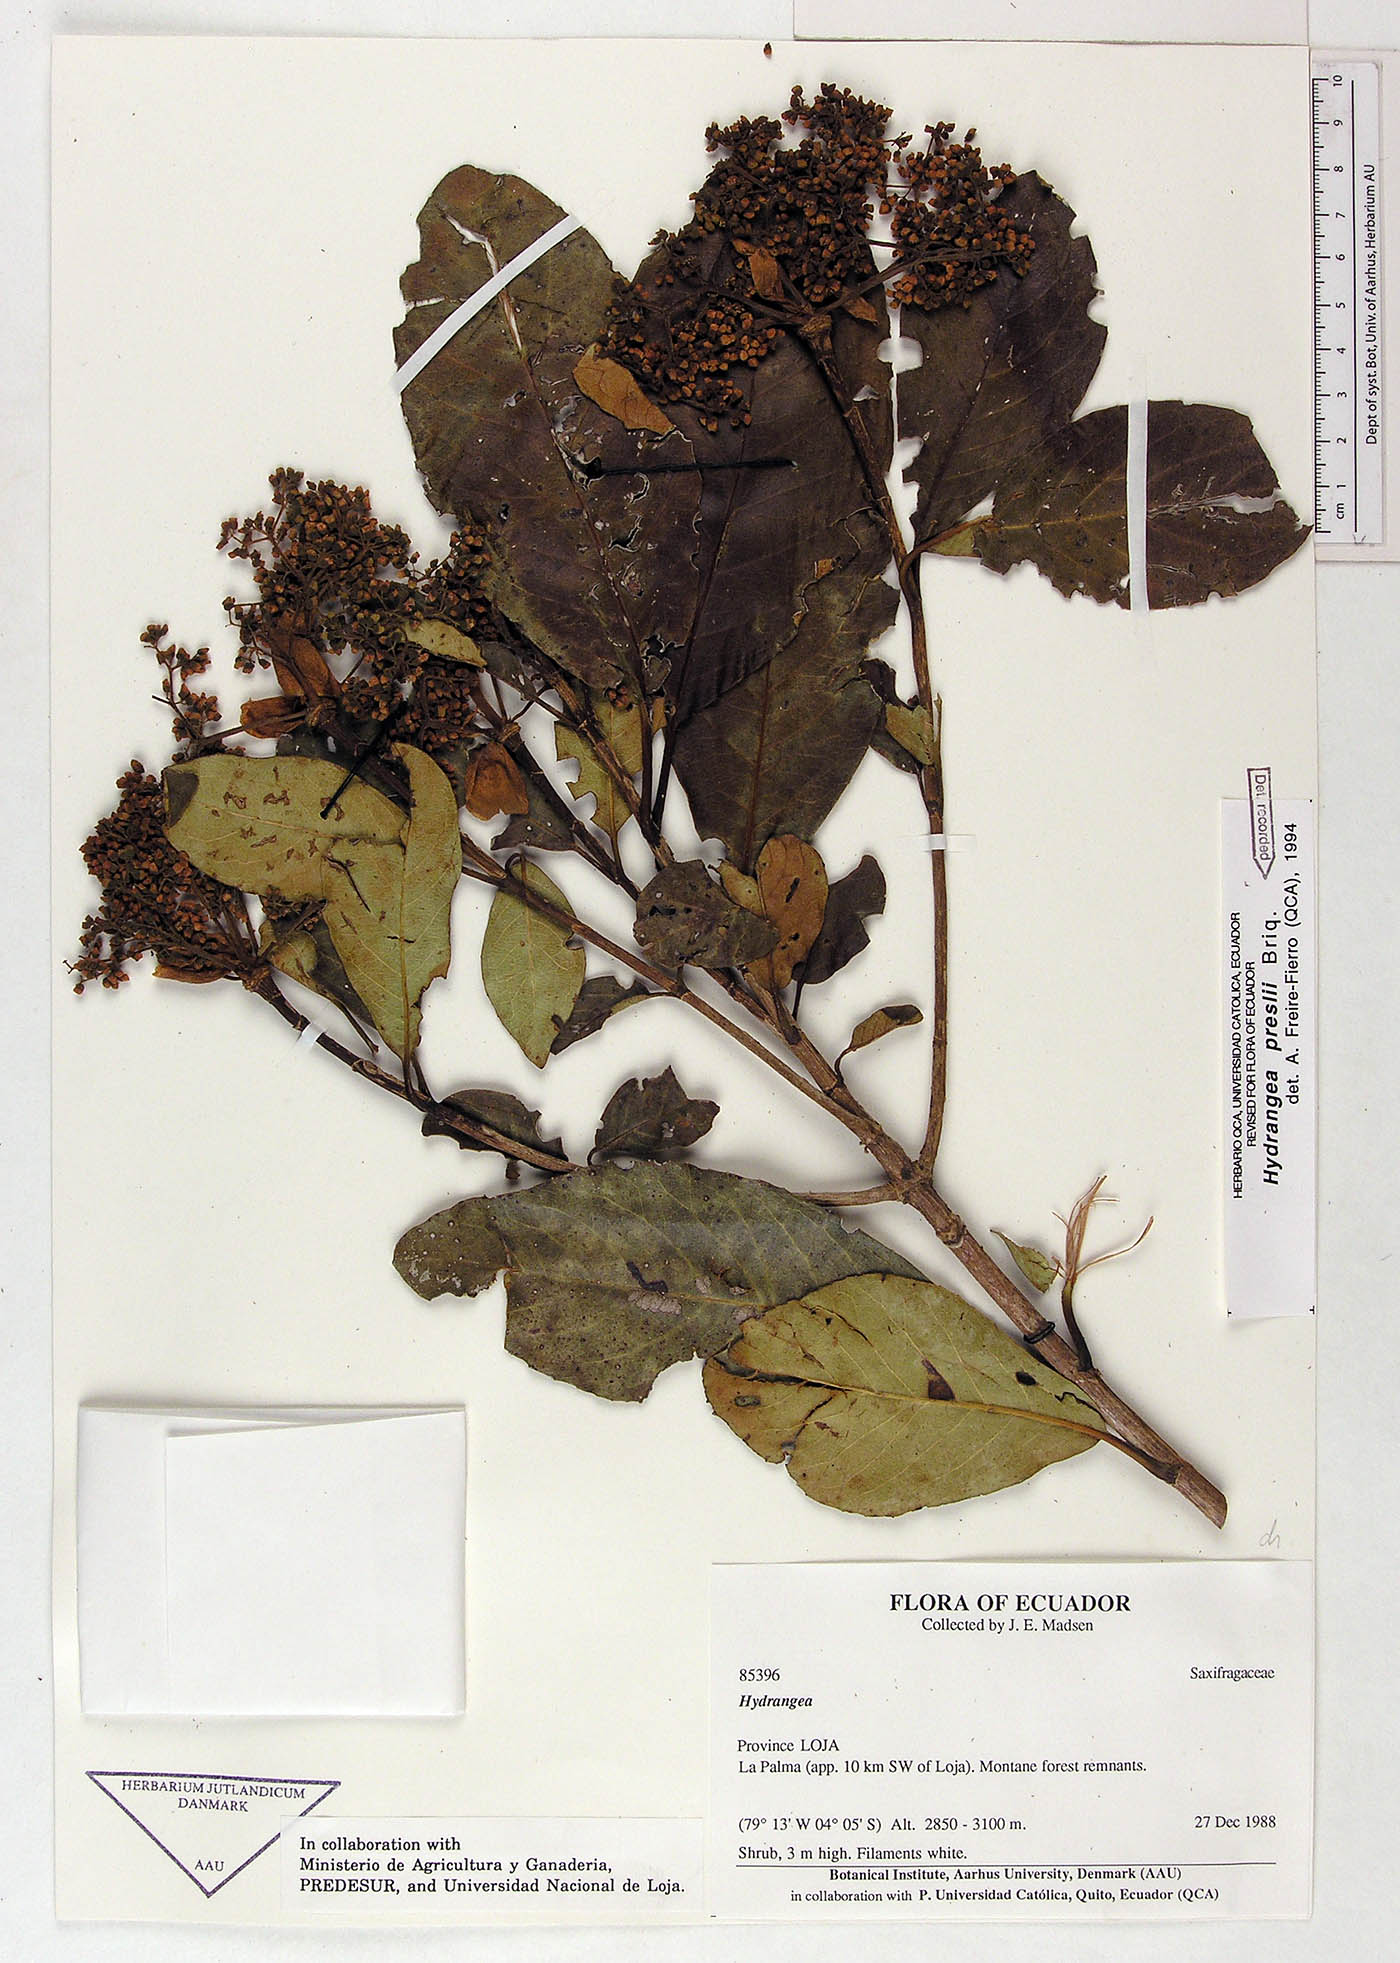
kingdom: Plantae
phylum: Tracheophyta
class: Magnoliopsida
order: Cornales
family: Hydrangeaceae
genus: Hydrangea
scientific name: Hydrangea diplostemona
